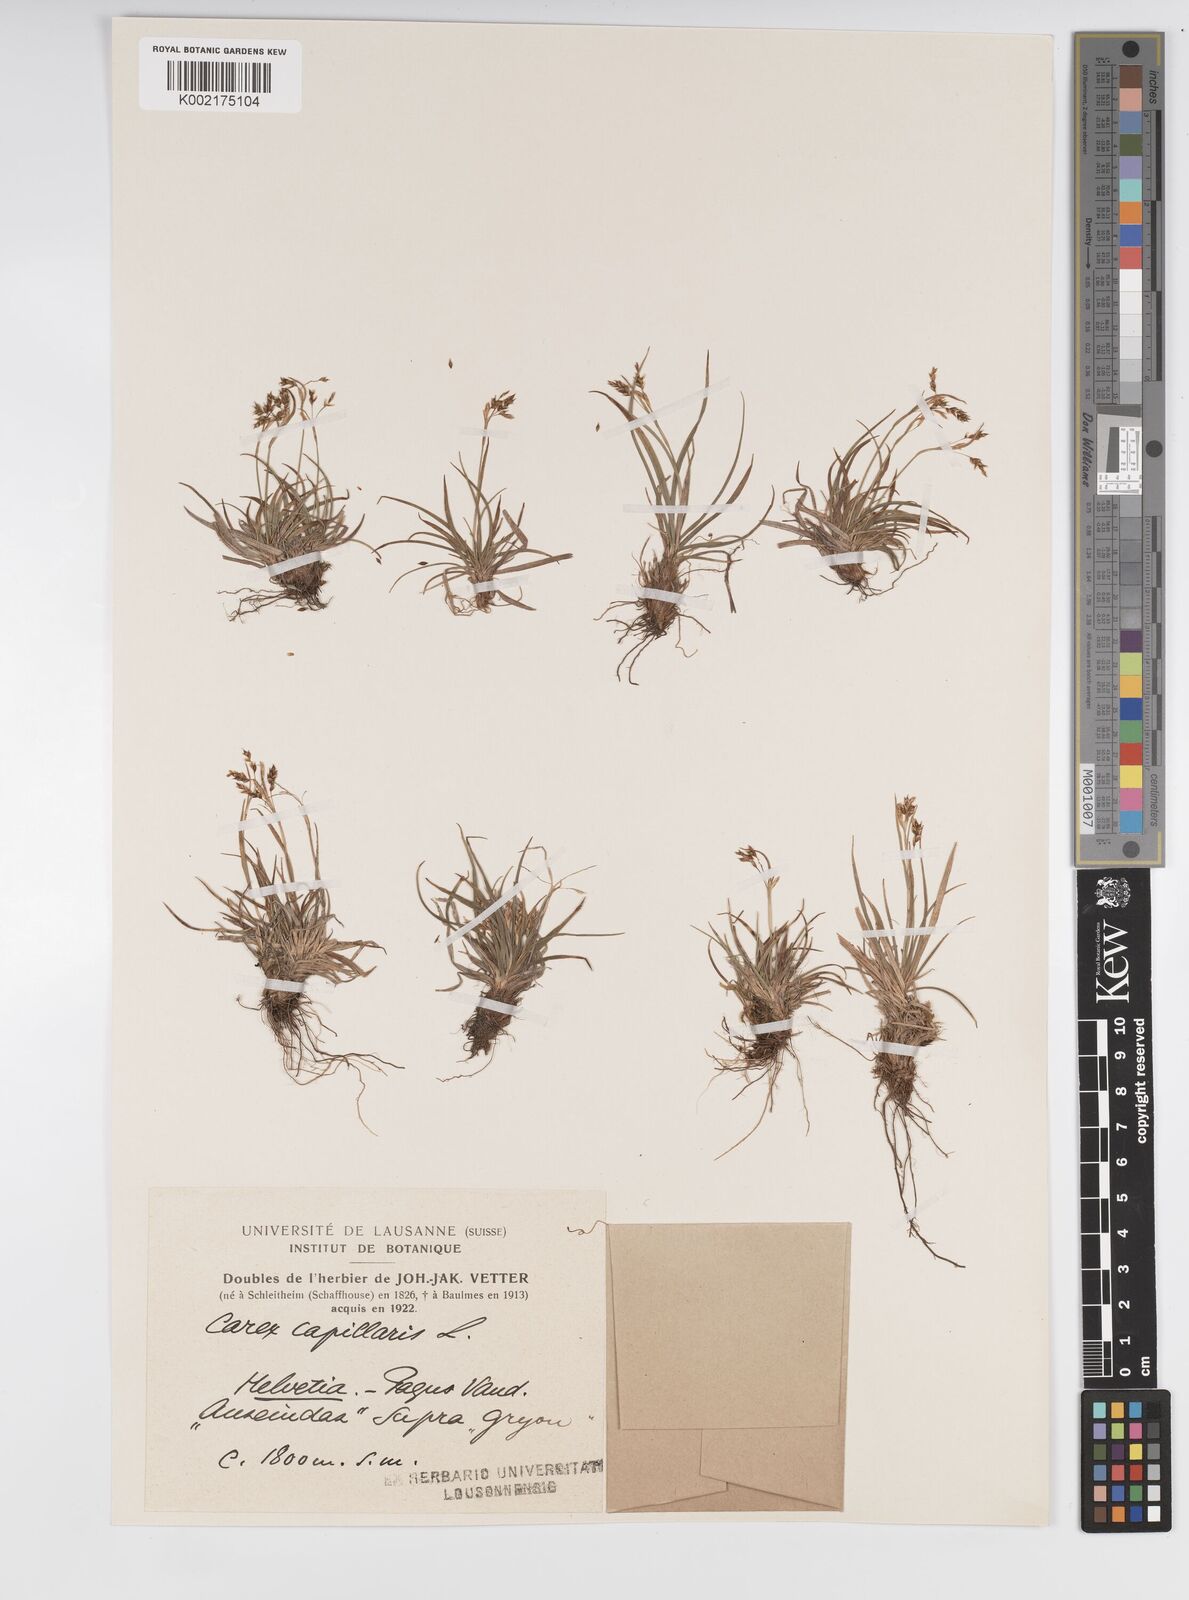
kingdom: Plantae
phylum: Tracheophyta
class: Liliopsida
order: Poales
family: Cyperaceae
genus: Carex
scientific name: Carex capillaris
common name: Hair sedge
